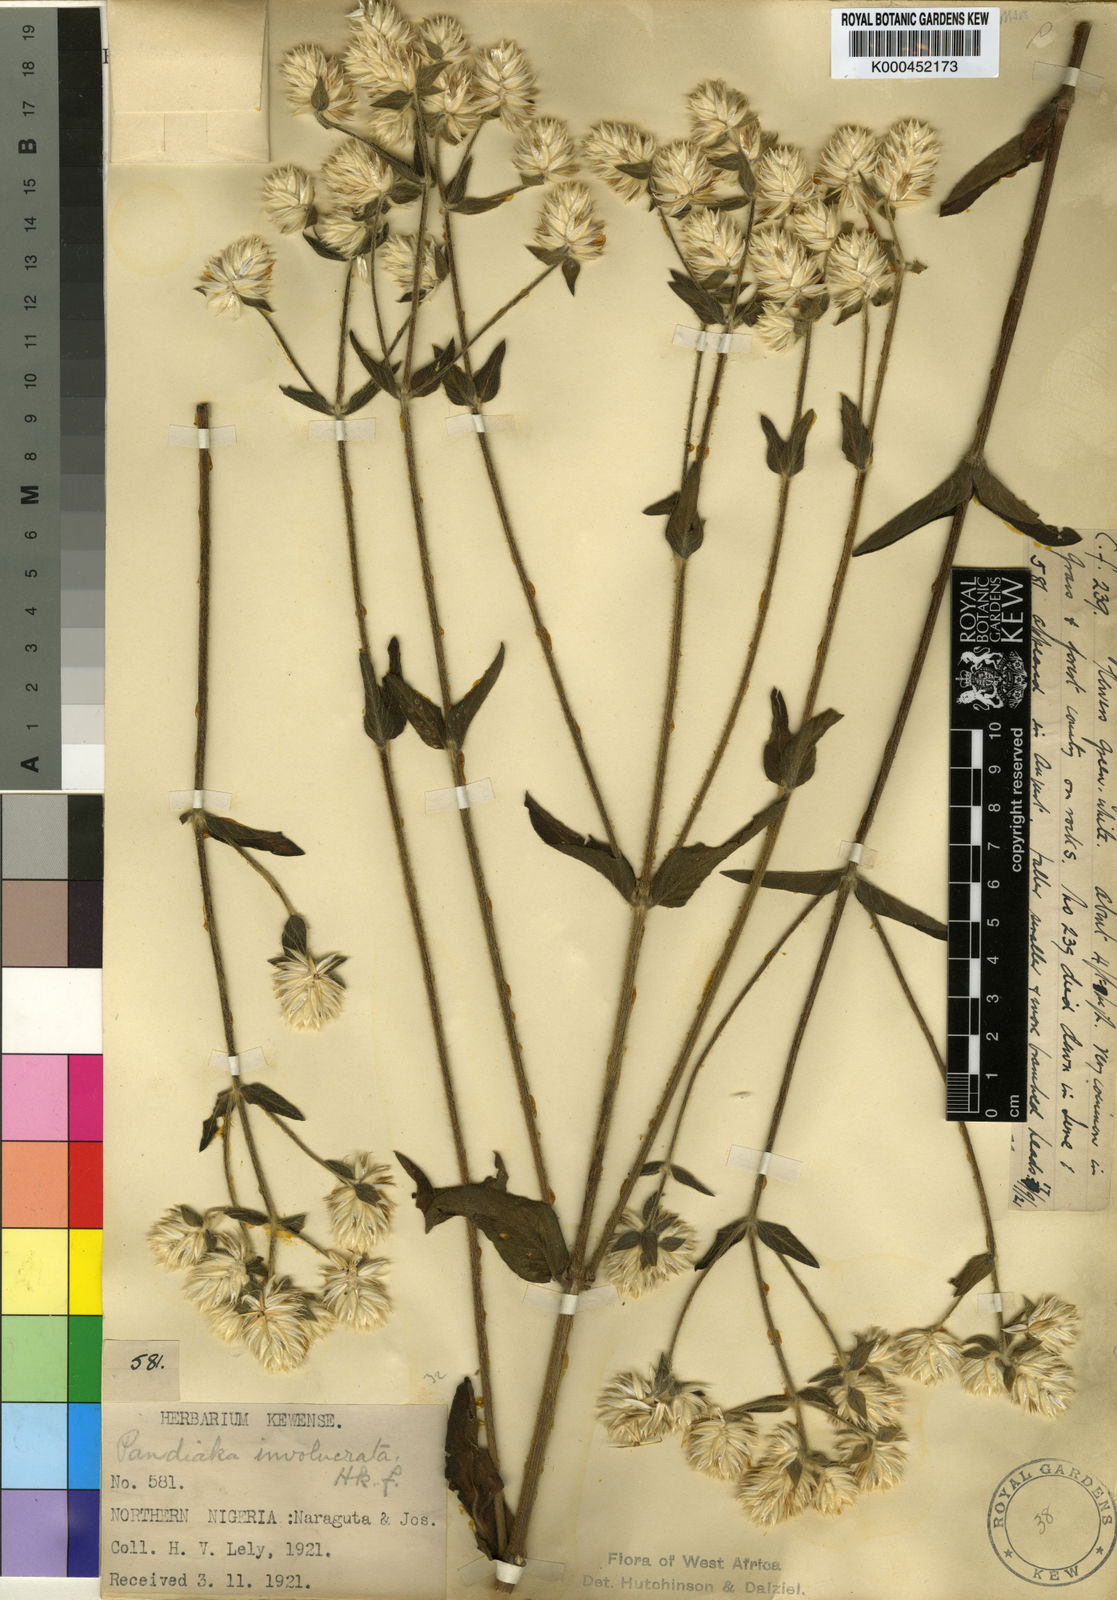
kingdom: Plantae
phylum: Tracheophyta
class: Magnoliopsida
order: Caryophyllales
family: Amaranthaceae
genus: Pandiaka
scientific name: Pandiaka involucrata
